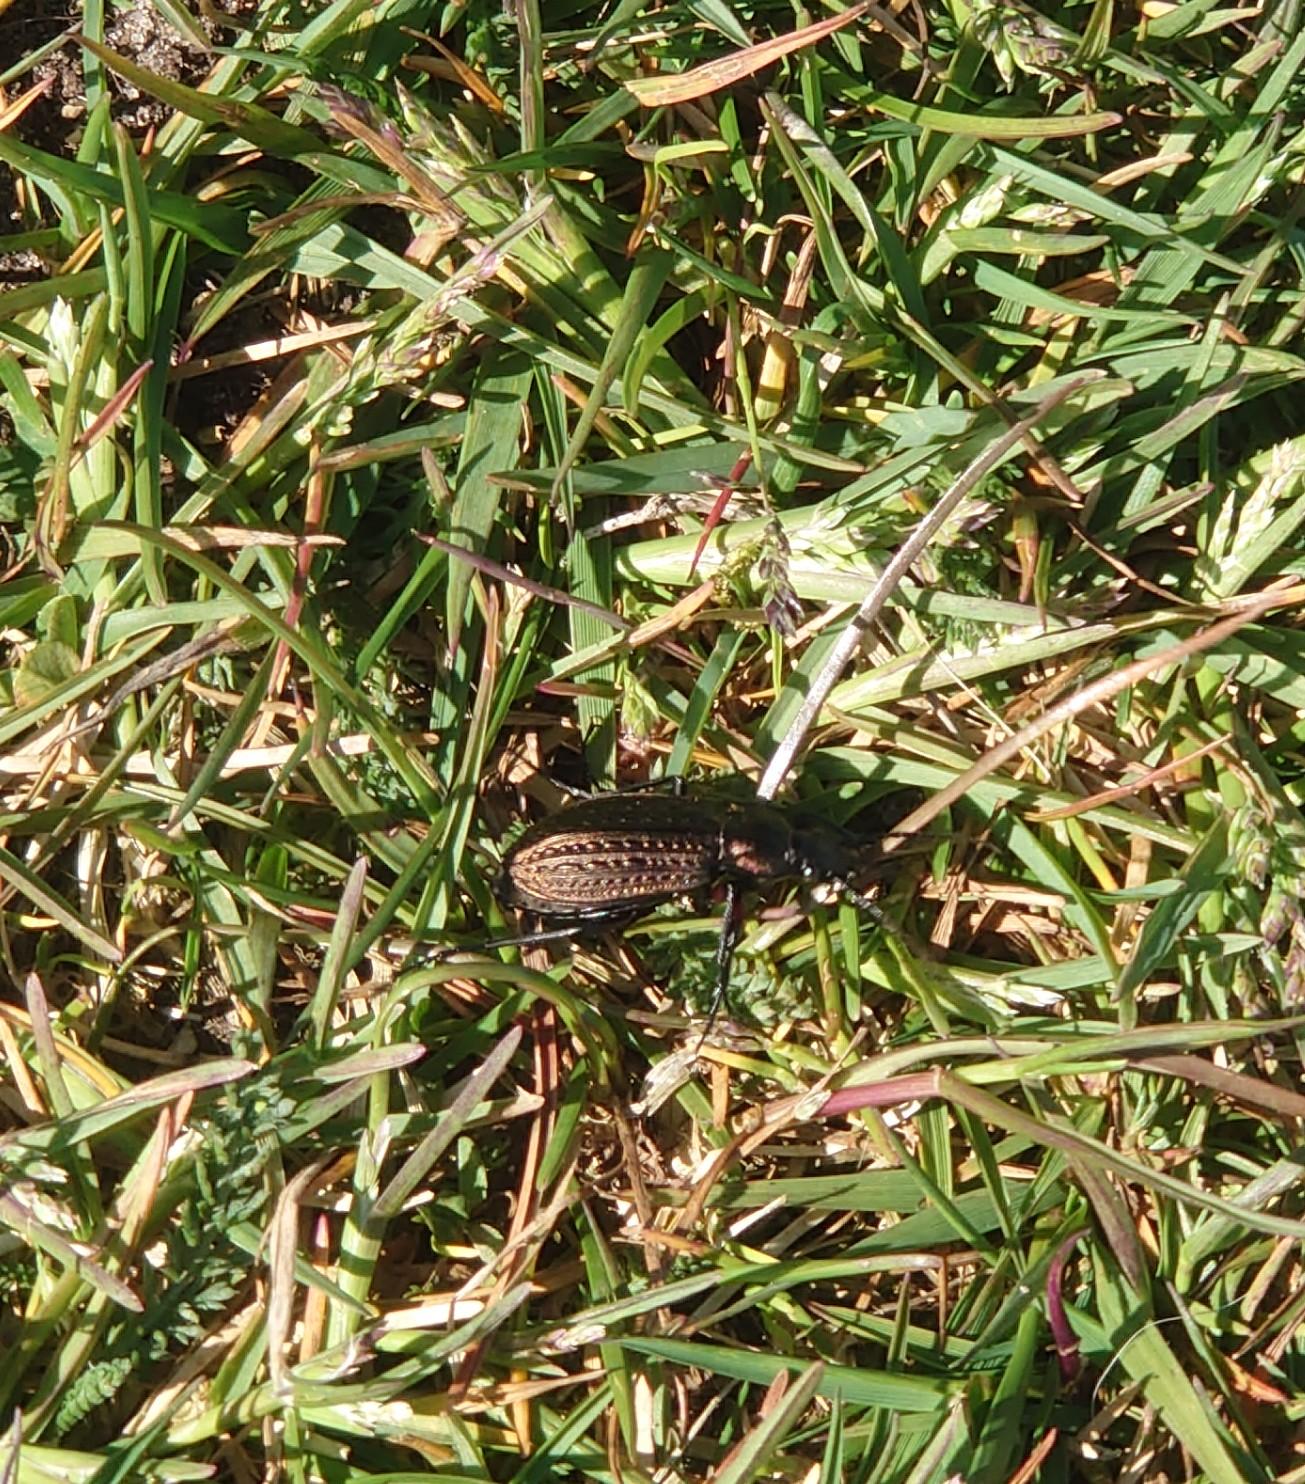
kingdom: Animalia
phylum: Arthropoda
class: Insecta
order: Coleoptera
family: Carabidae
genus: Carabus
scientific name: Carabus granulatus
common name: Kornet løber
